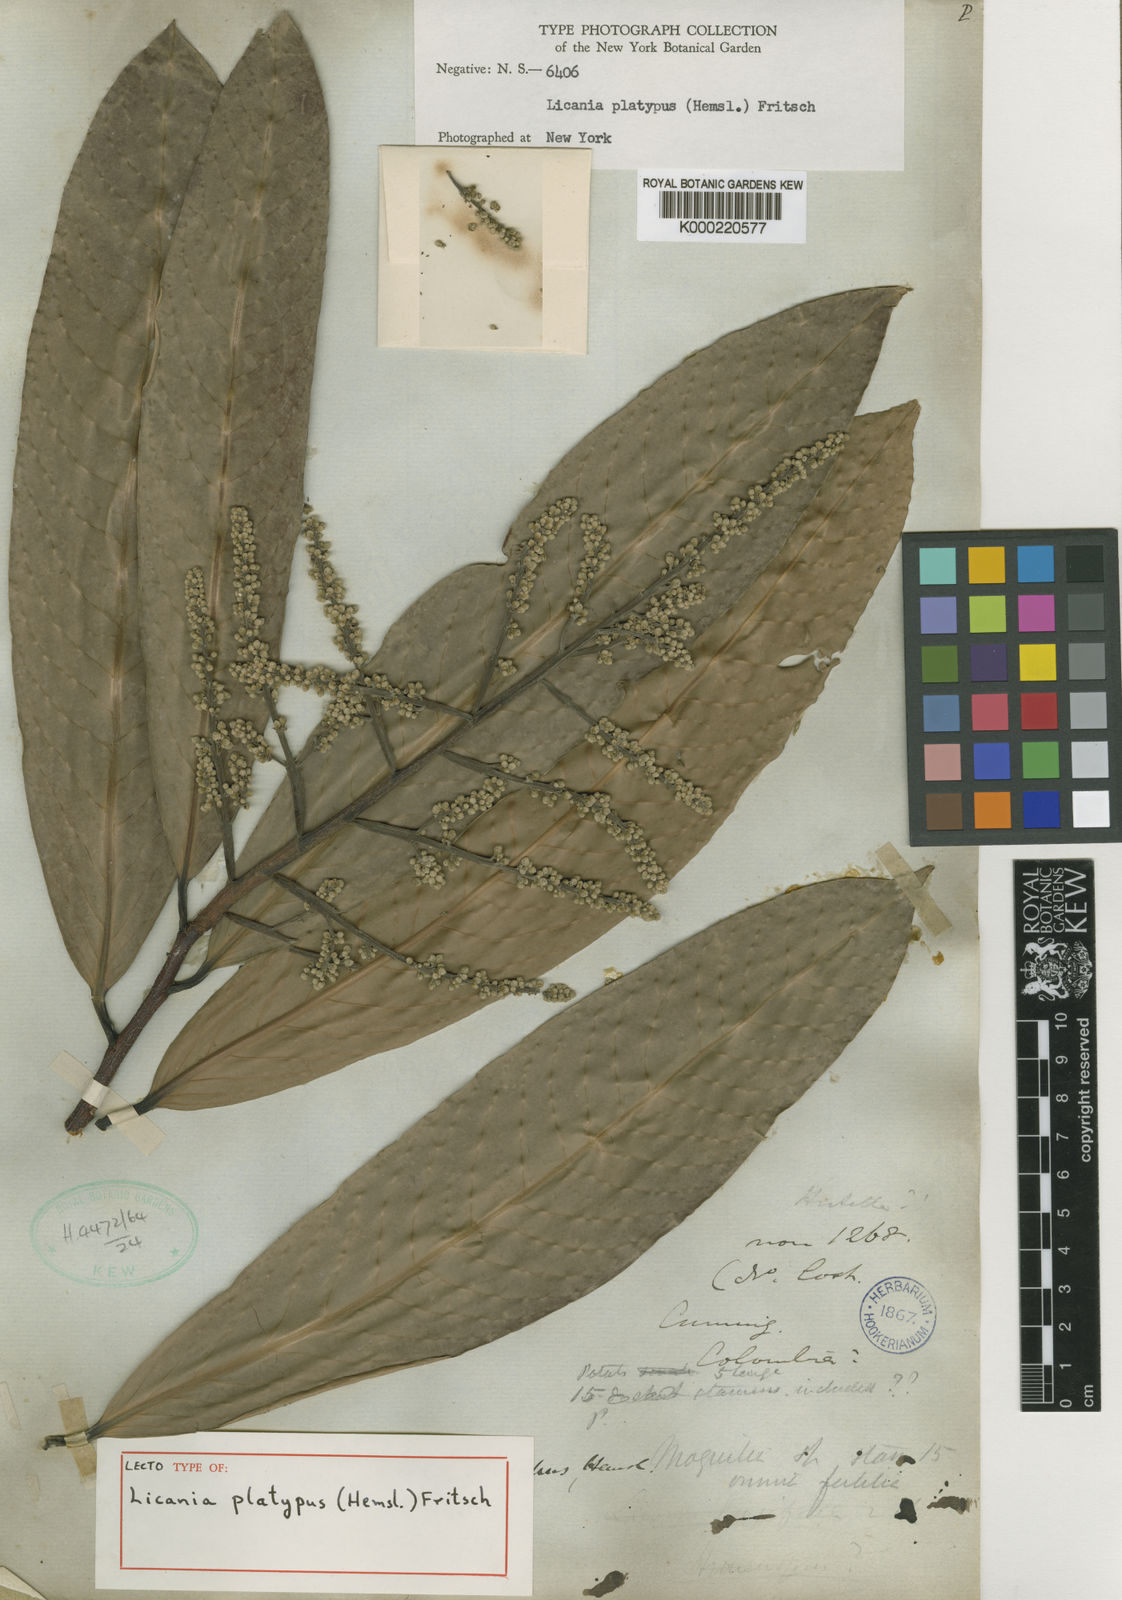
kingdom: Plantae
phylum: Tracheophyta
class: Magnoliopsida
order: Malpighiales
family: Chrysobalanaceae
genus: Moquilea
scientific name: Moquilea platypus
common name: Sansapote
